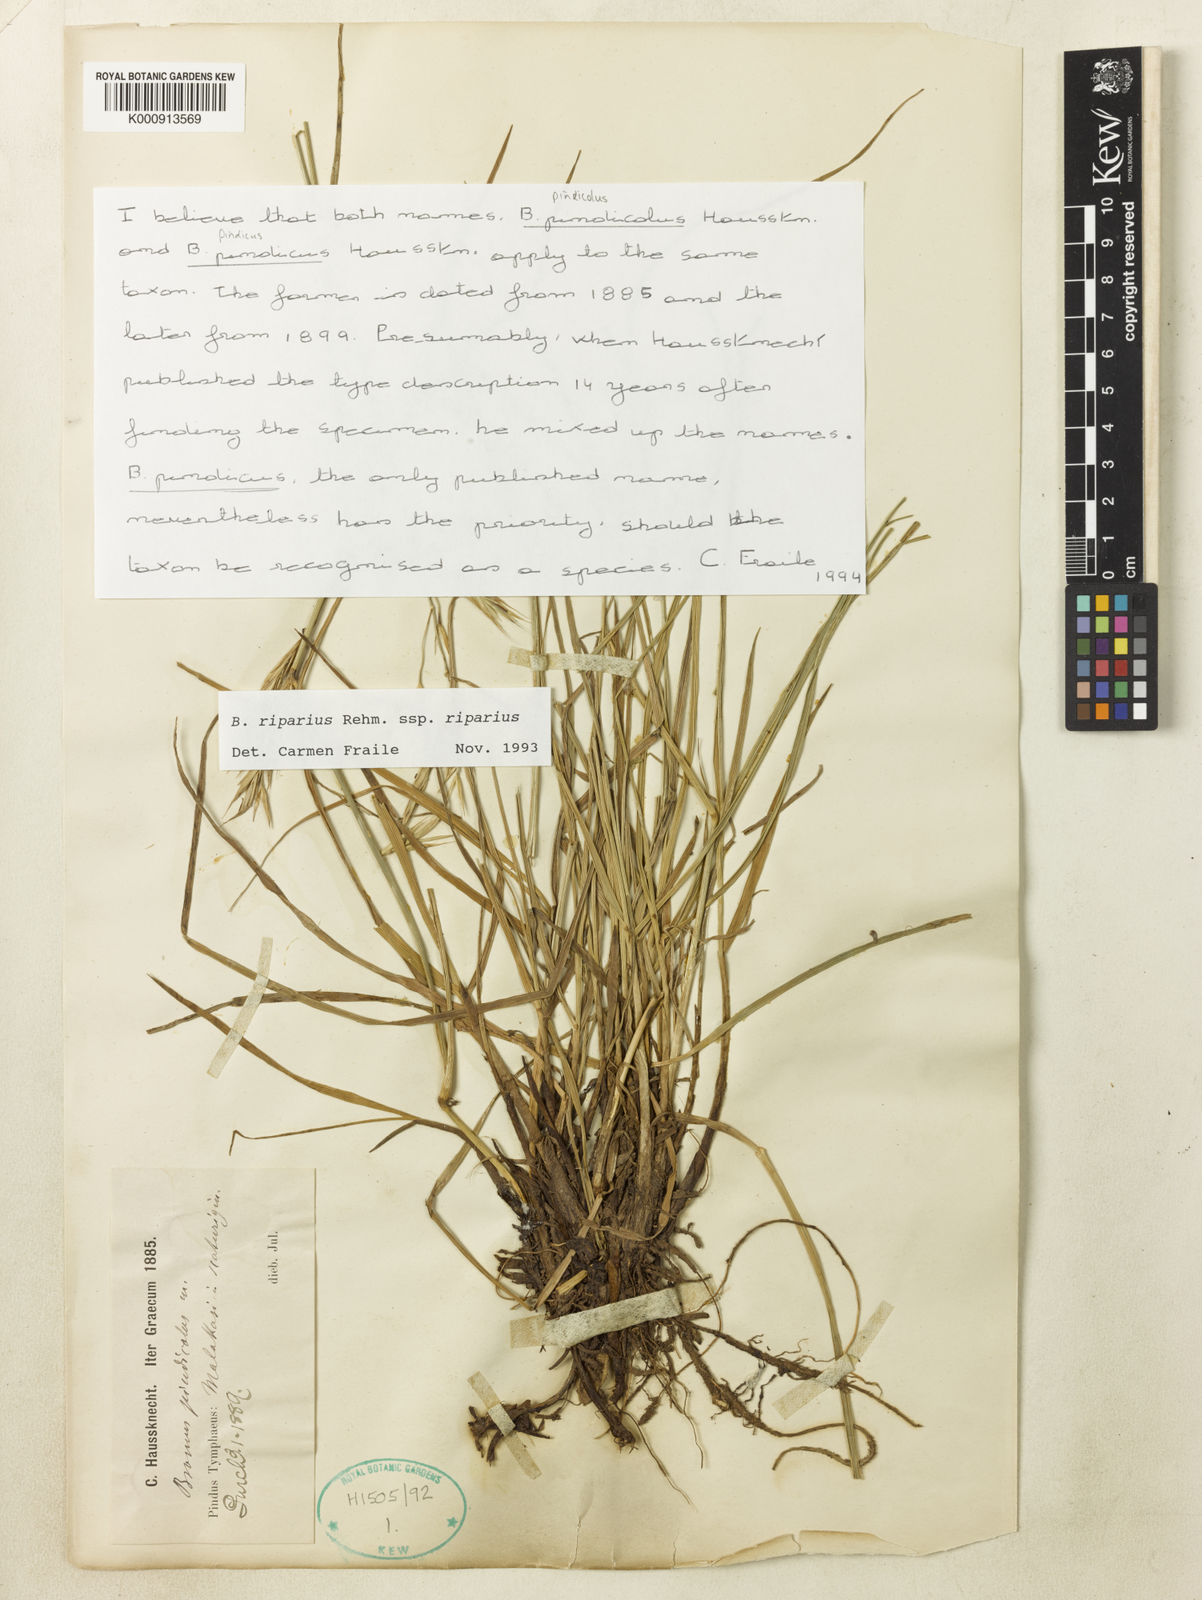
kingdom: Plantae
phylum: Tracheophyta
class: Liliopsida
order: Poales
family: Poaceae
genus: Bromus
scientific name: Bromus riparius
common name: Meadow brome
